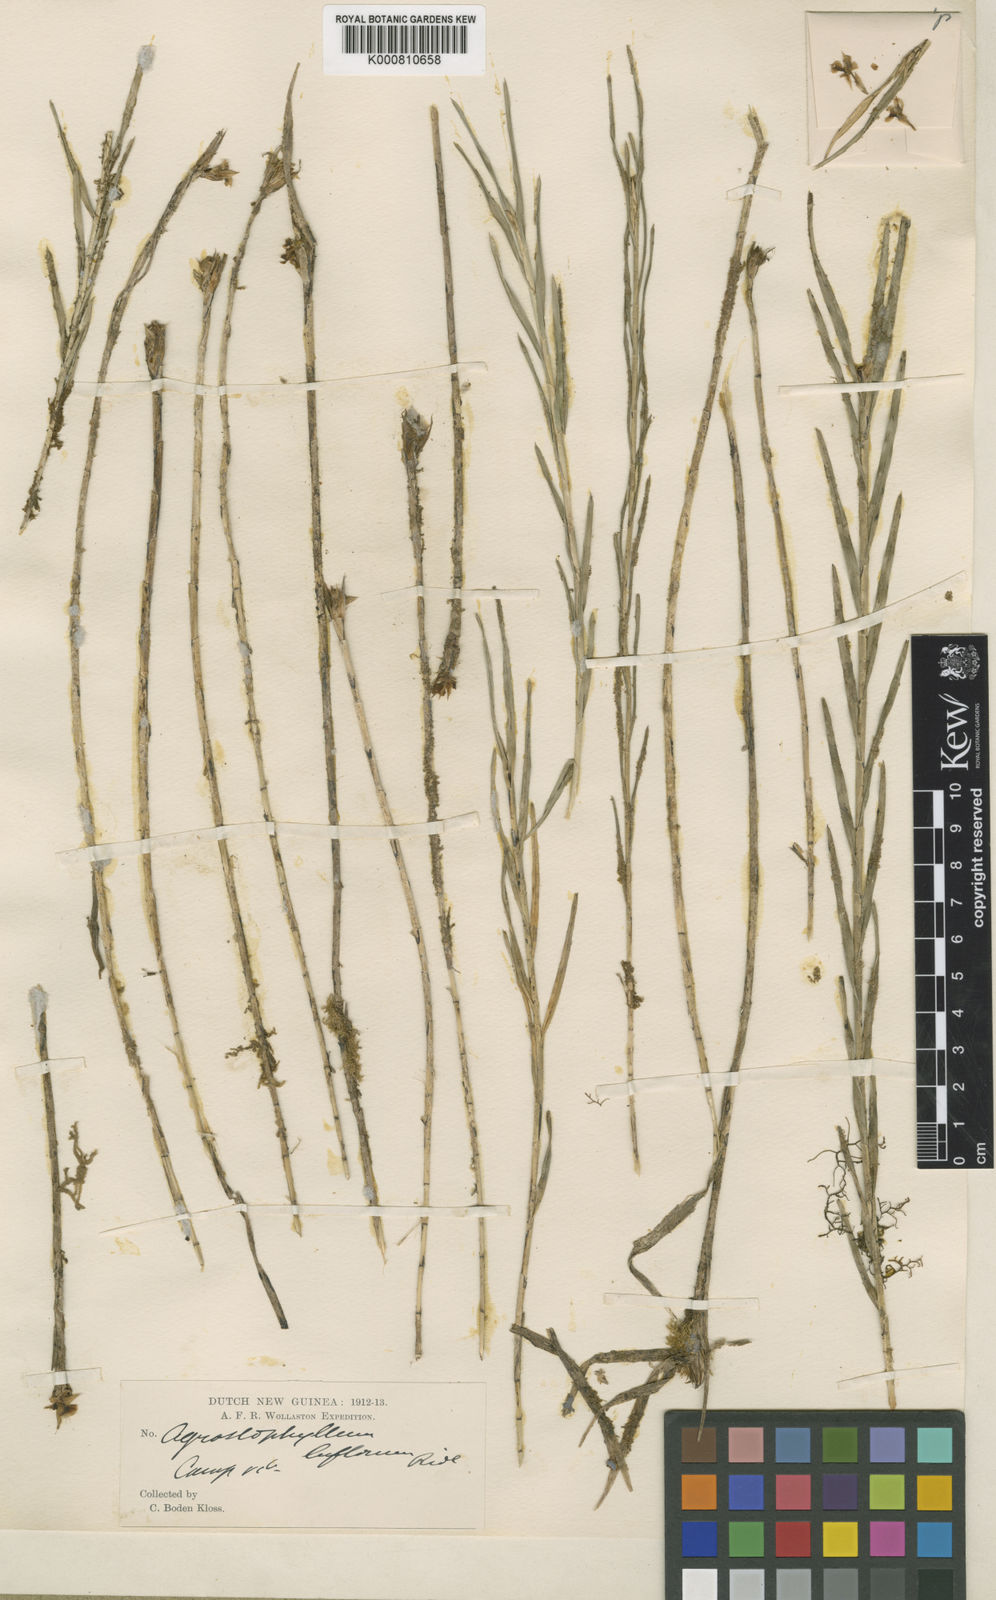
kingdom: Plantae
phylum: Tracheophyta
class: Liliopsida
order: Asparagales
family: Orchidaceae
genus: Agrostophyllum
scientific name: Agrostophyllum uniflorum
